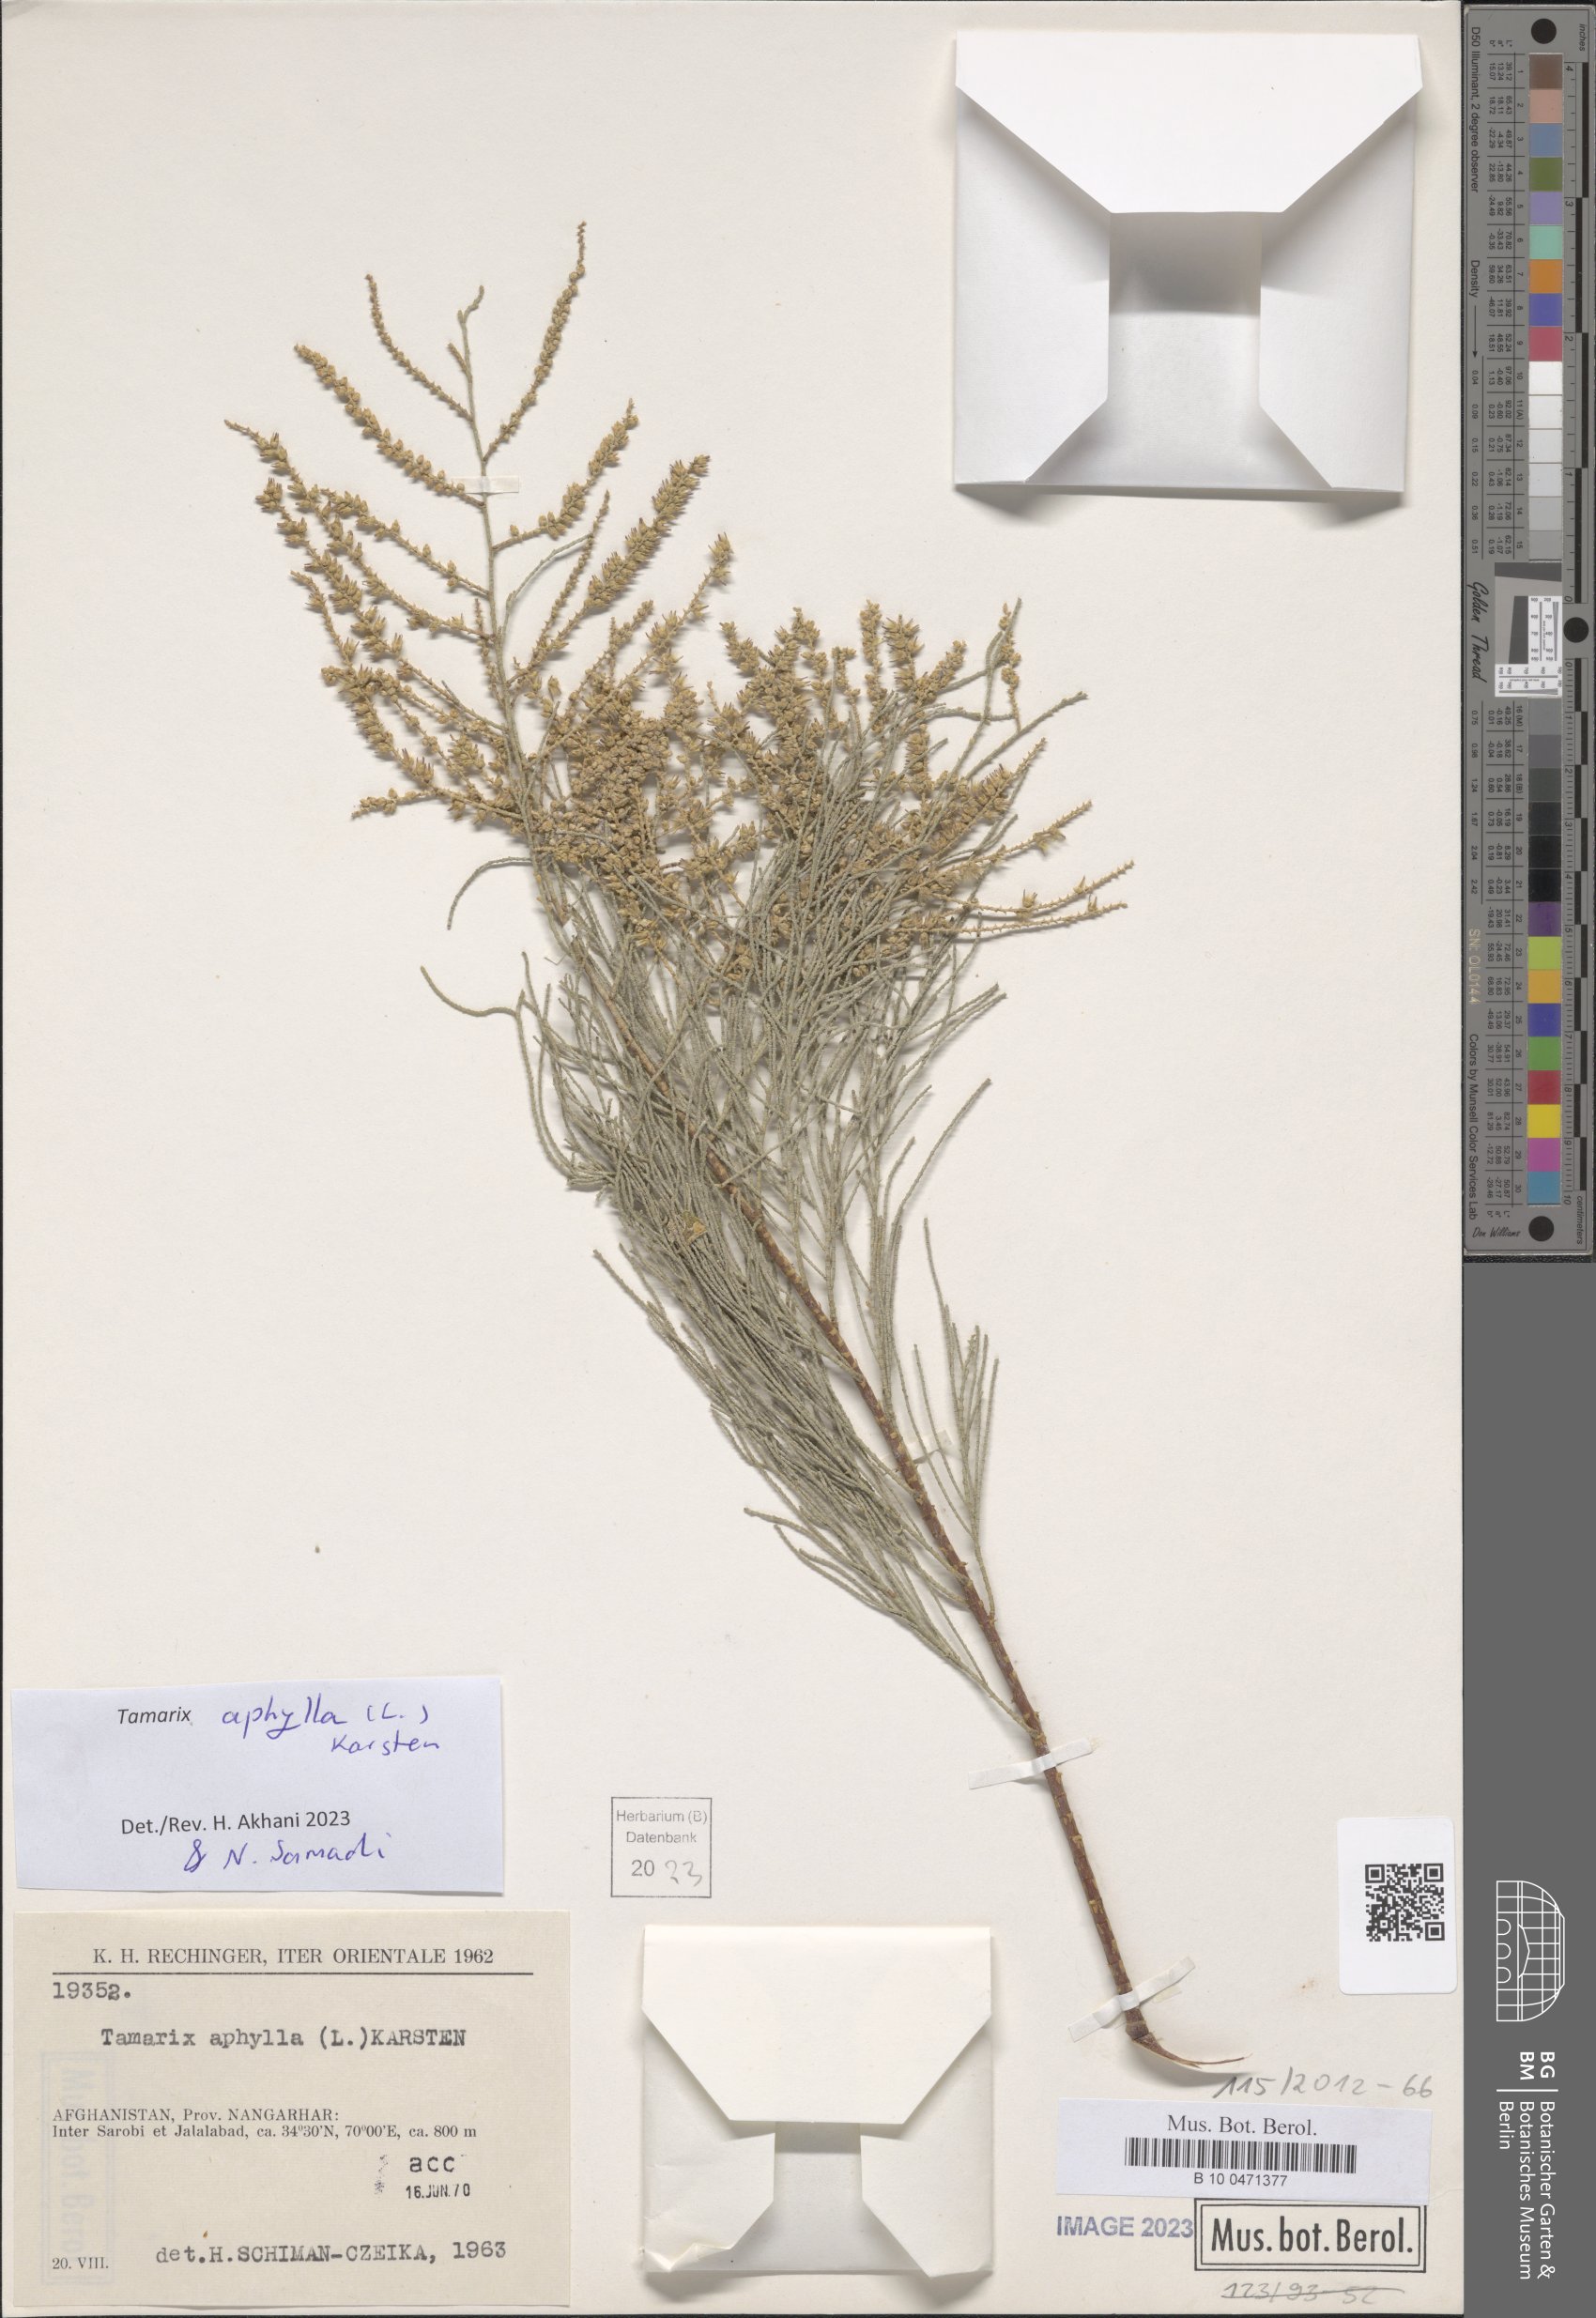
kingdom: Plantae
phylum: Tracheophyta
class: Magnoliopsida
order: Caryophyllales
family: Tamaricaceae
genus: Tamarix
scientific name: Tamarix aphylla
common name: Athel tamarisk
